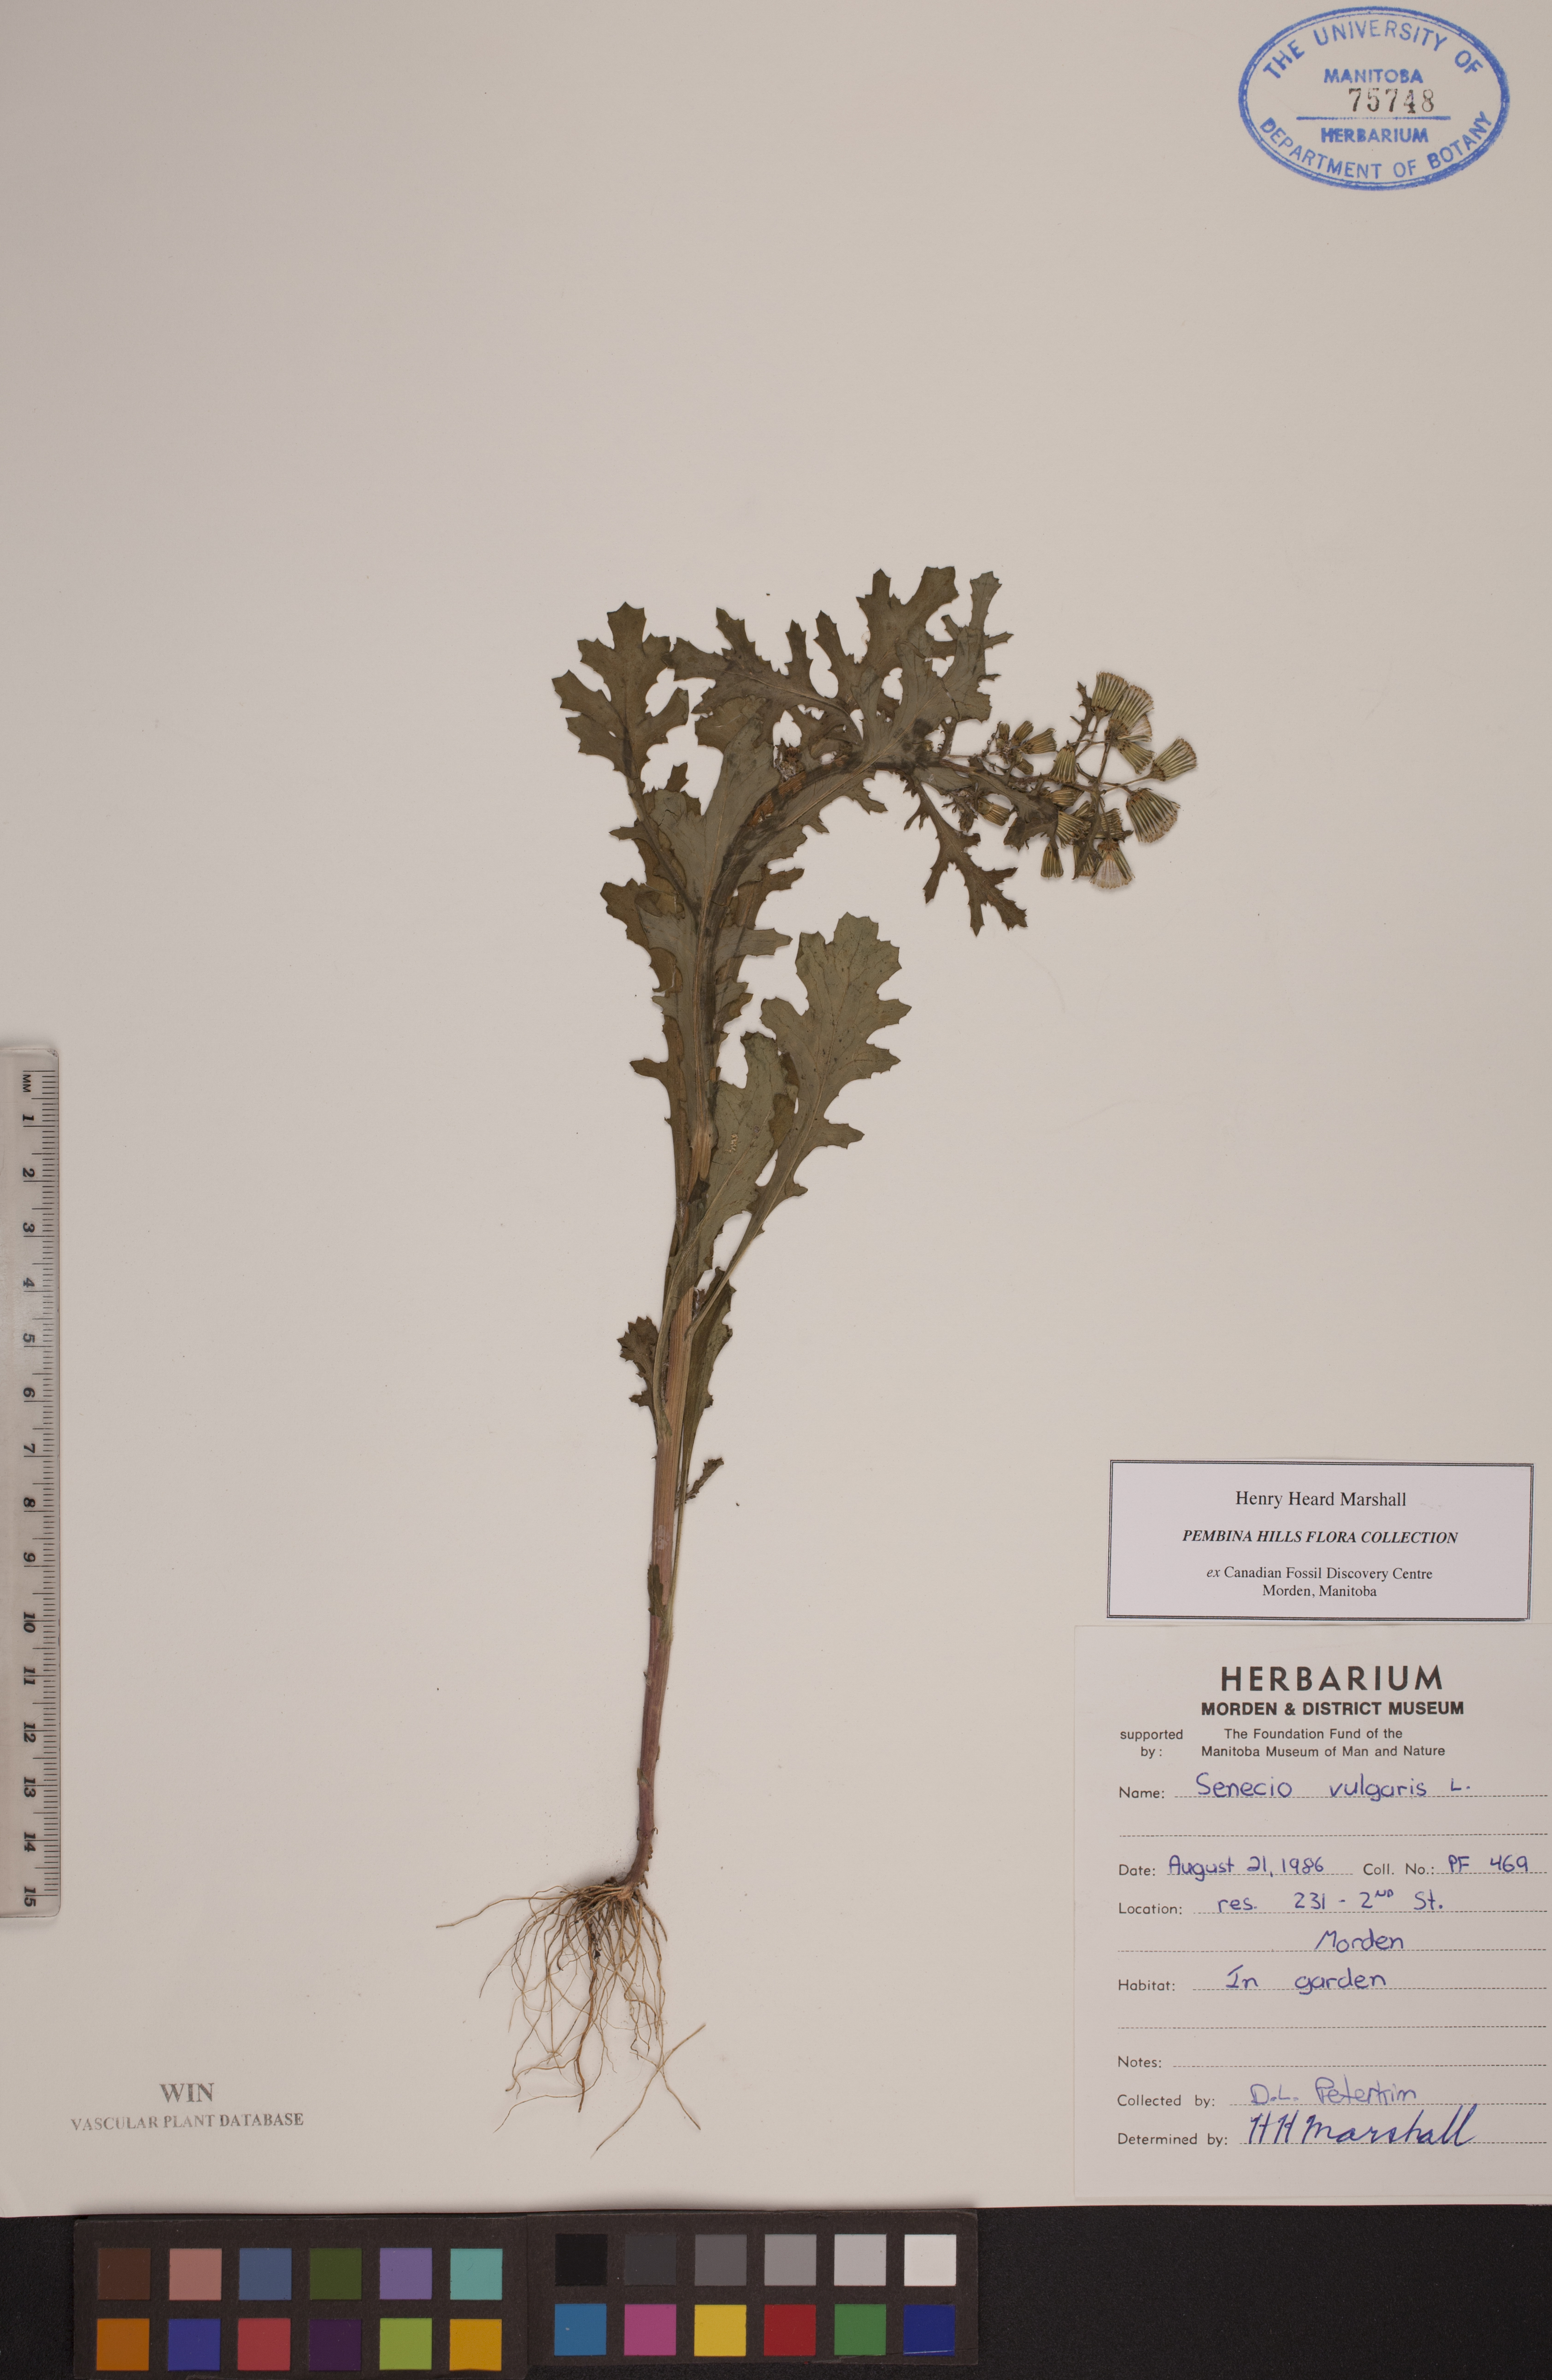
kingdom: Plantae
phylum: Tracheophyta
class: Magnoliopsida
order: Asterales
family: Asteraceae
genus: Senecio
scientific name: Senecio vulgaris
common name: Old-man-in-the-spring
